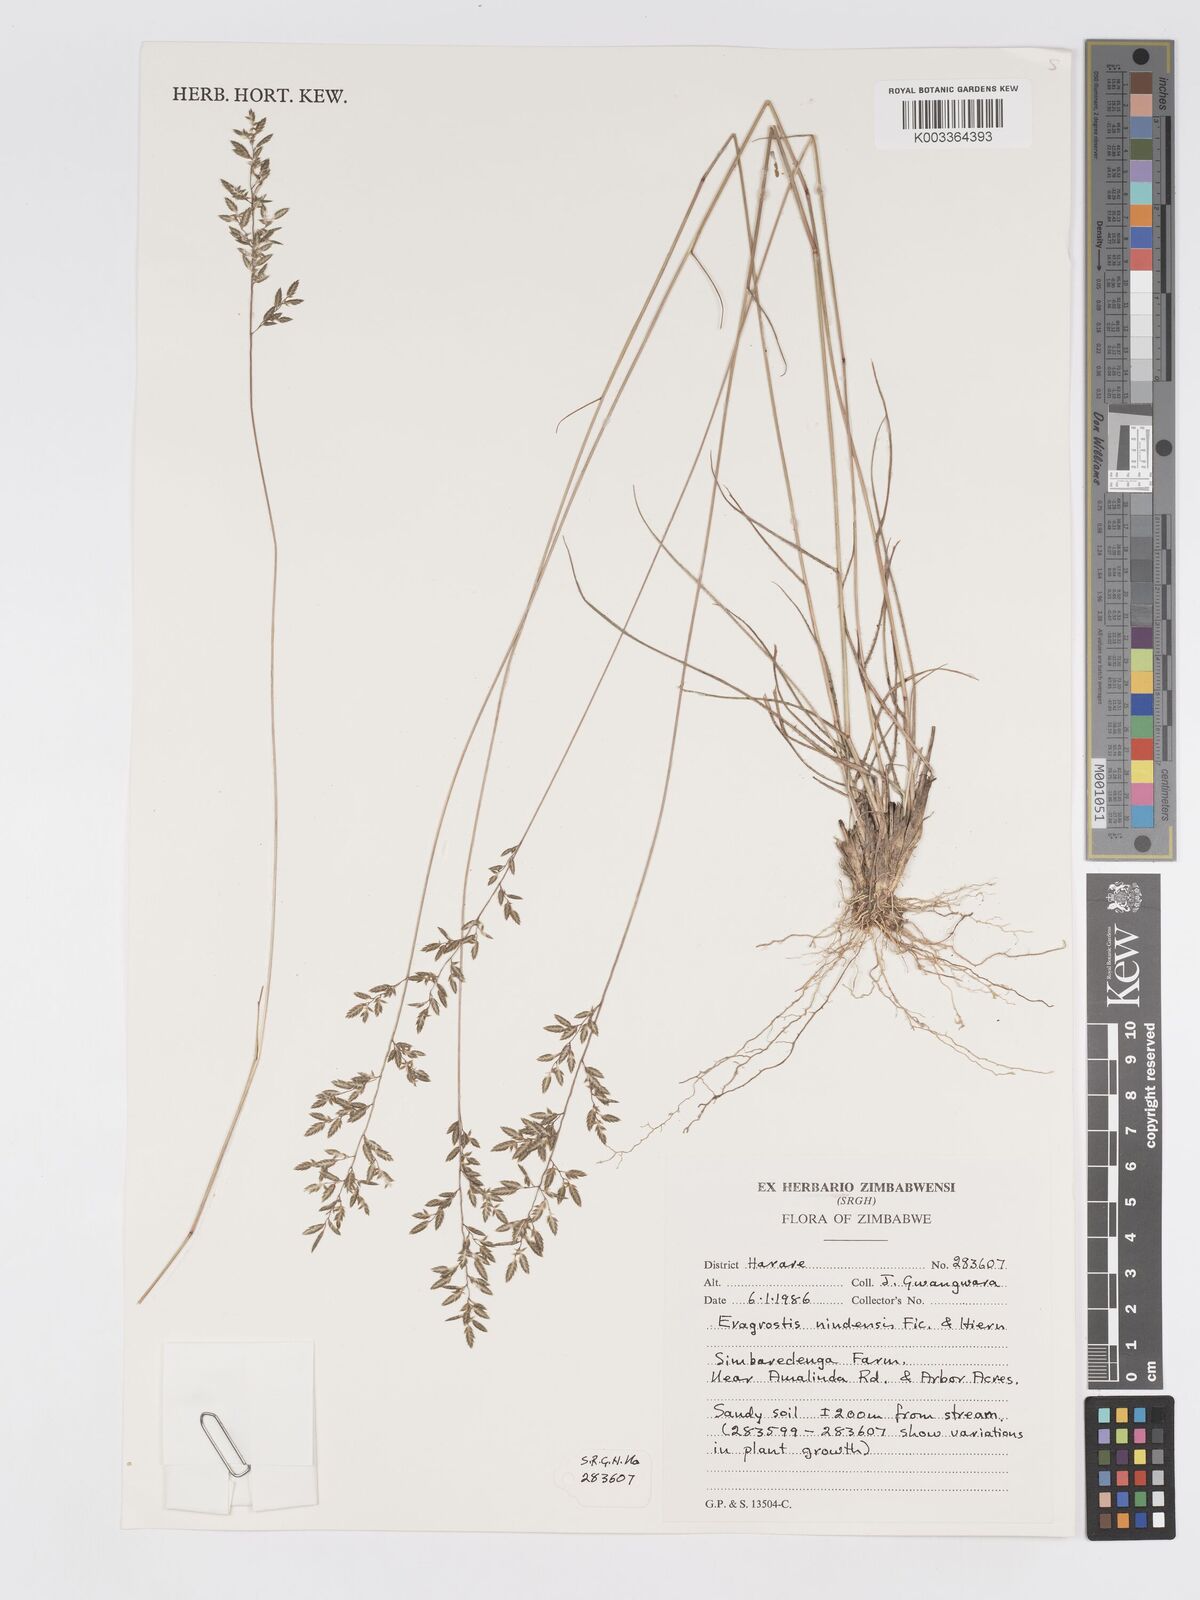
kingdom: Plantae
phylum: Tracheophyta
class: Liliopsida
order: Poales
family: Poaceae
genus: Eragrostis
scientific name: Eragrostis racemosa
